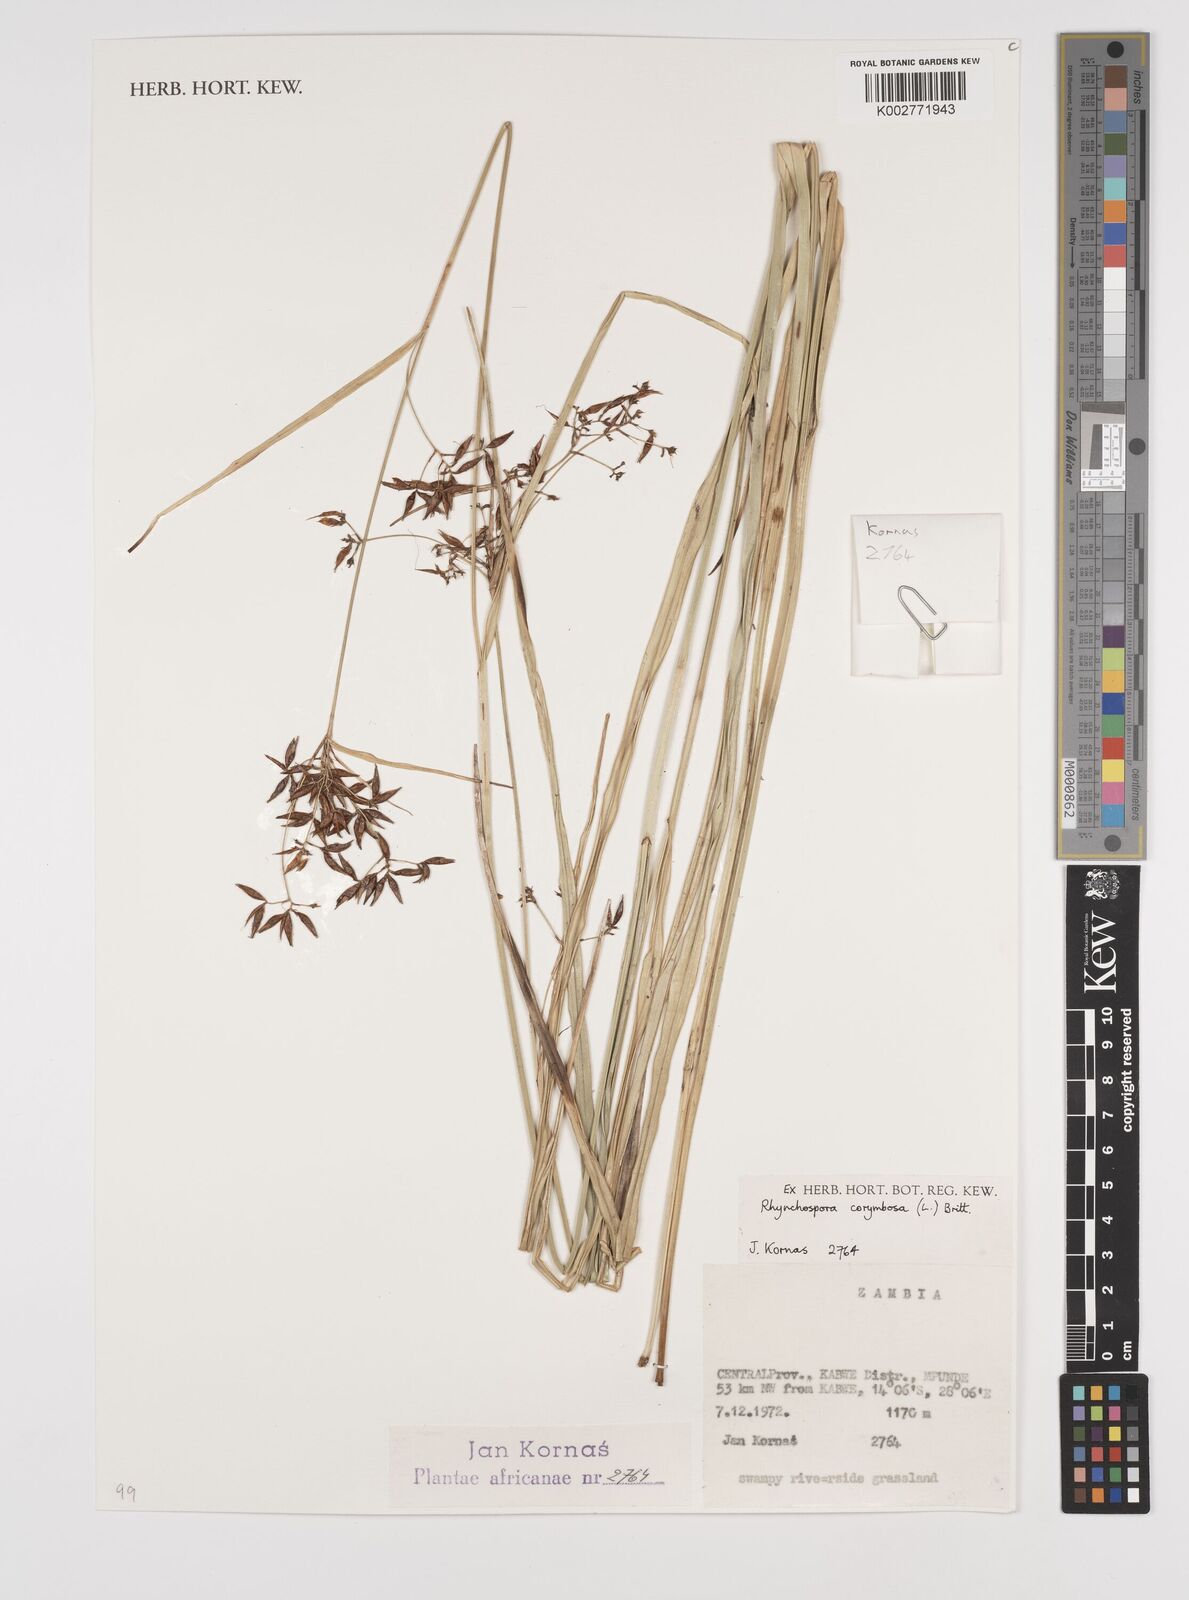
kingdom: Plantae
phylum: Tracheophyta
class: Liliopsida
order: Poales
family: Cyperaceae
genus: Rhynchospora
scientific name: Rhynchospora corymbosa
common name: Golden beak sedge
